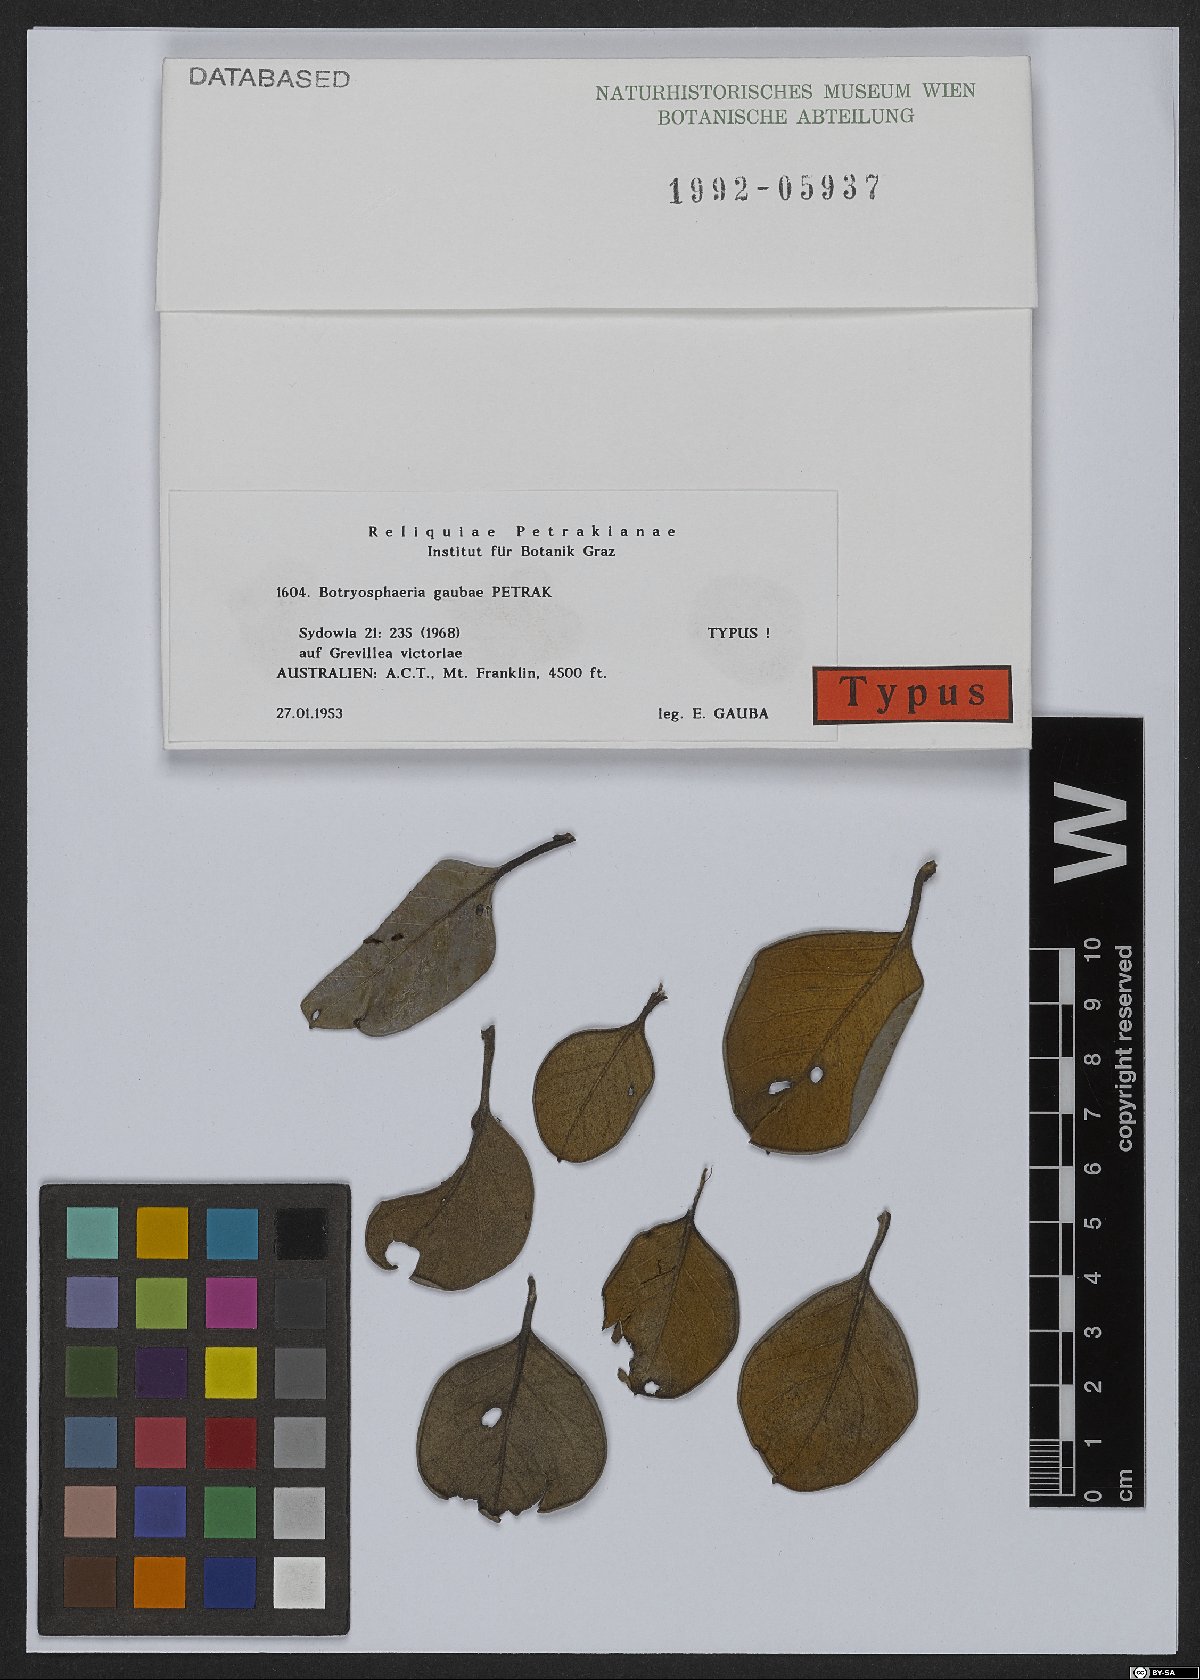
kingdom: Fungi
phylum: Ascomycota
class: Dothideomycetes
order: Botryosphaeriales
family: Botryosphaeriaceae
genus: Botryosphaeria
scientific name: Botryosphaeria gaubae
